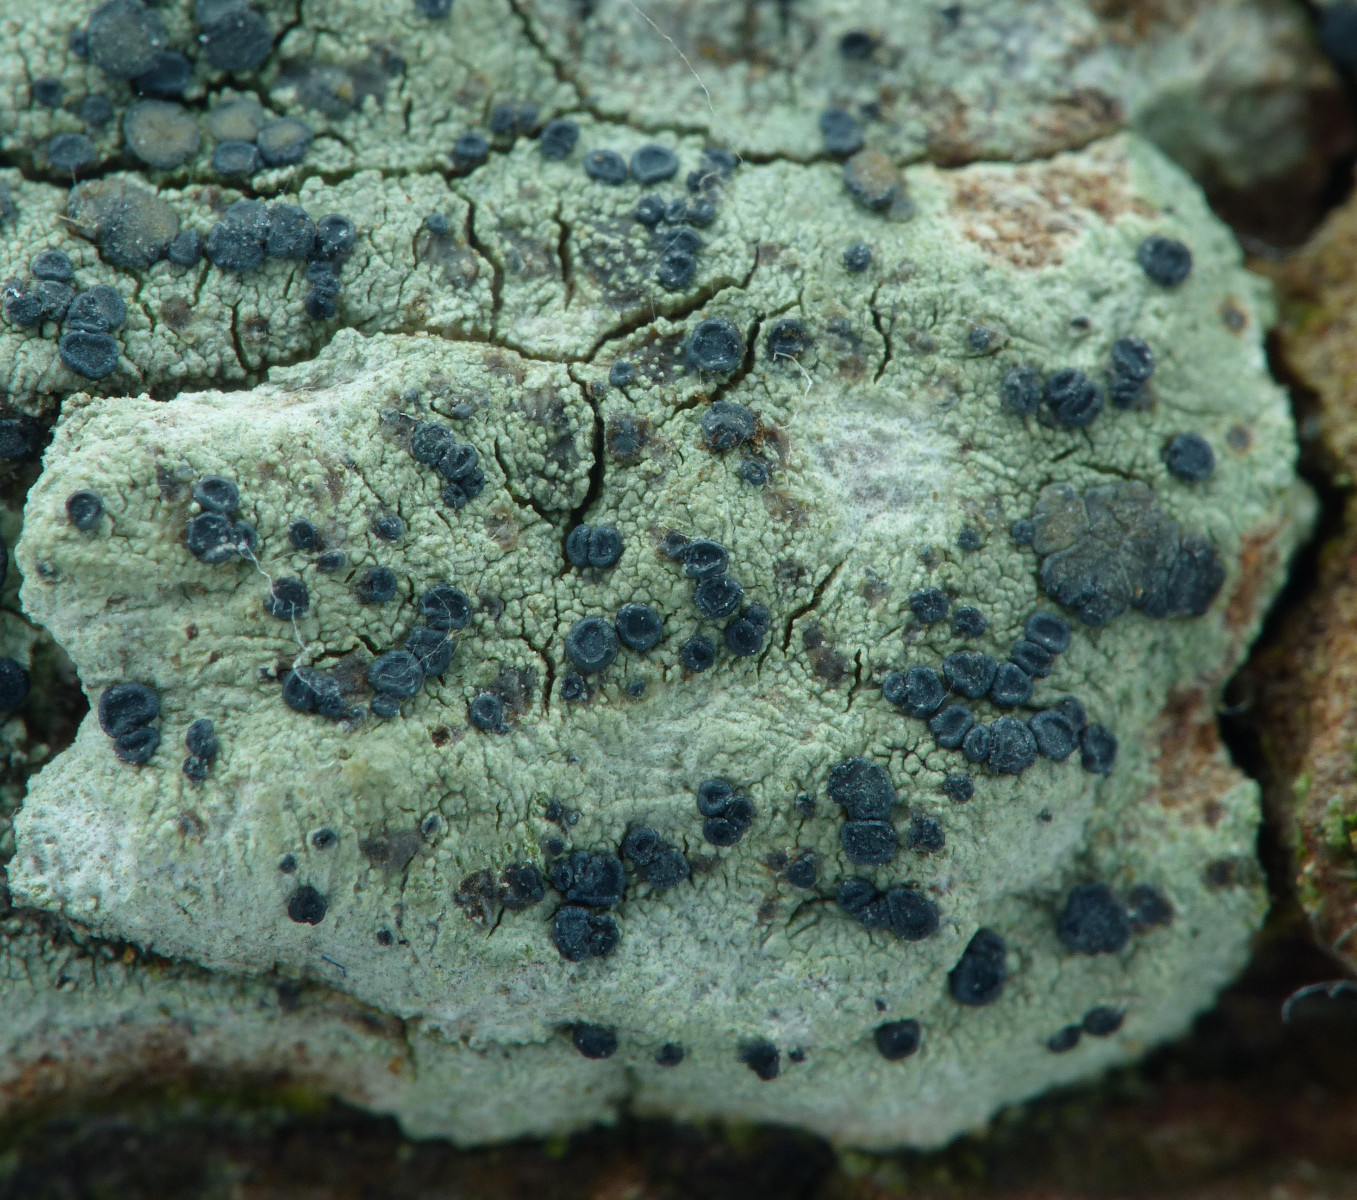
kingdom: Fungi
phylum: Ascomycota
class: Lecanoromycetes
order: Lecanorales
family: Lecanoraceae
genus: Lecidella
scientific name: Lecidella elaeochroma
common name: grågrøn skivelav
